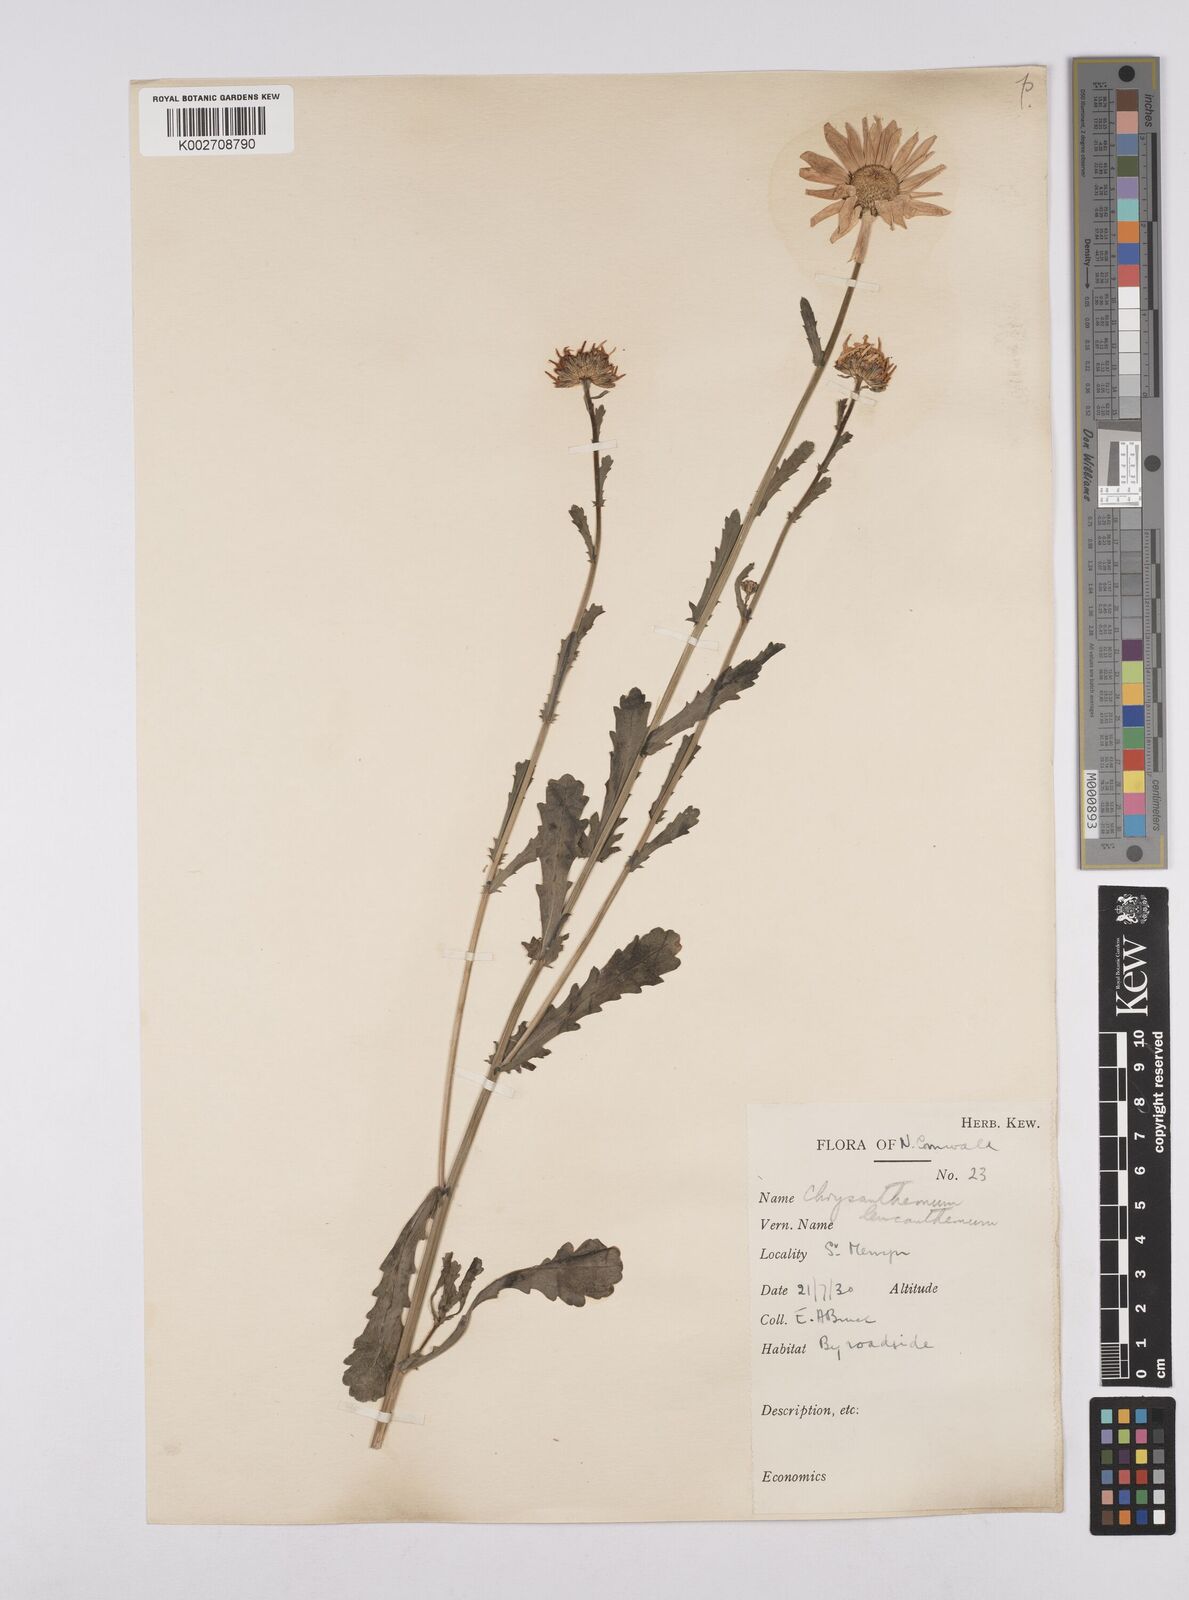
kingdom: Plantae
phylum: Tracheophyta
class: Magnoliopsida
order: Asterales
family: Asteraceae
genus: Leucanthemum
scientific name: Leucanthemum vulgare
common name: Oxeye daisy
